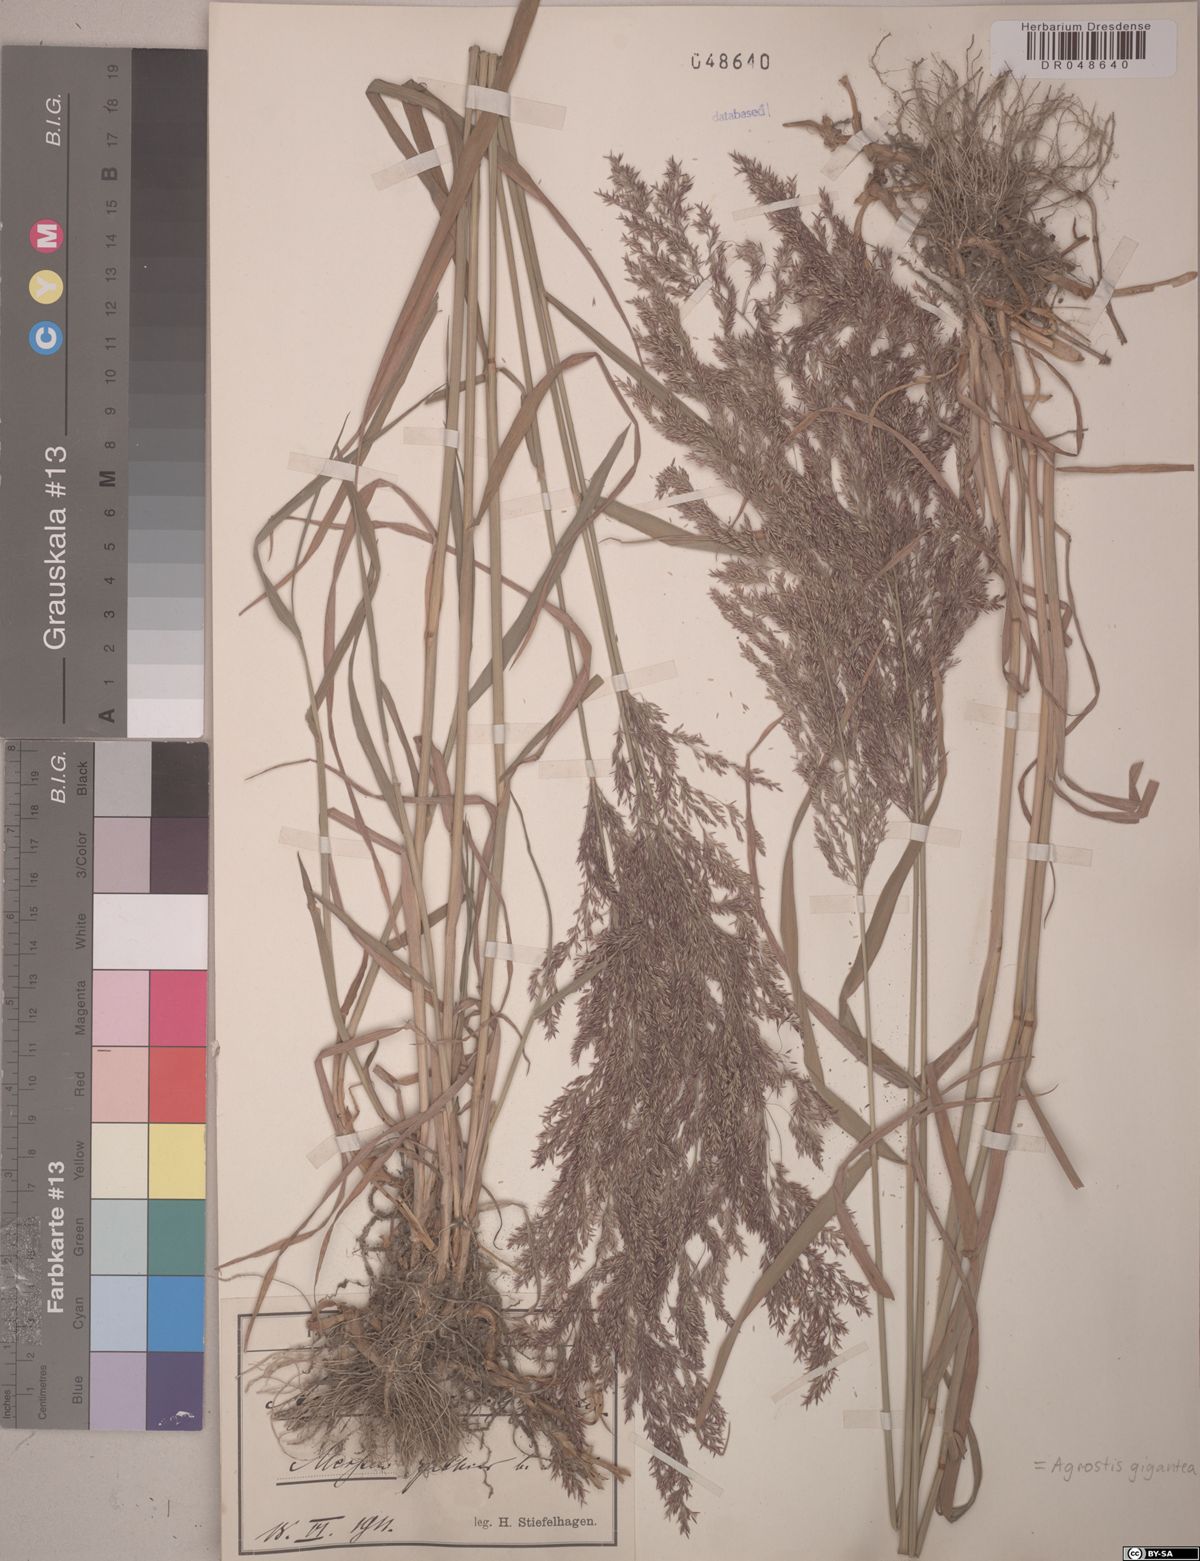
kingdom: Plantae
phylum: Tracheophyta
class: Liliopsida
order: Poales
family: Poaceae
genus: Agrostis
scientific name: Agrostis gigantea
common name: Black bent
